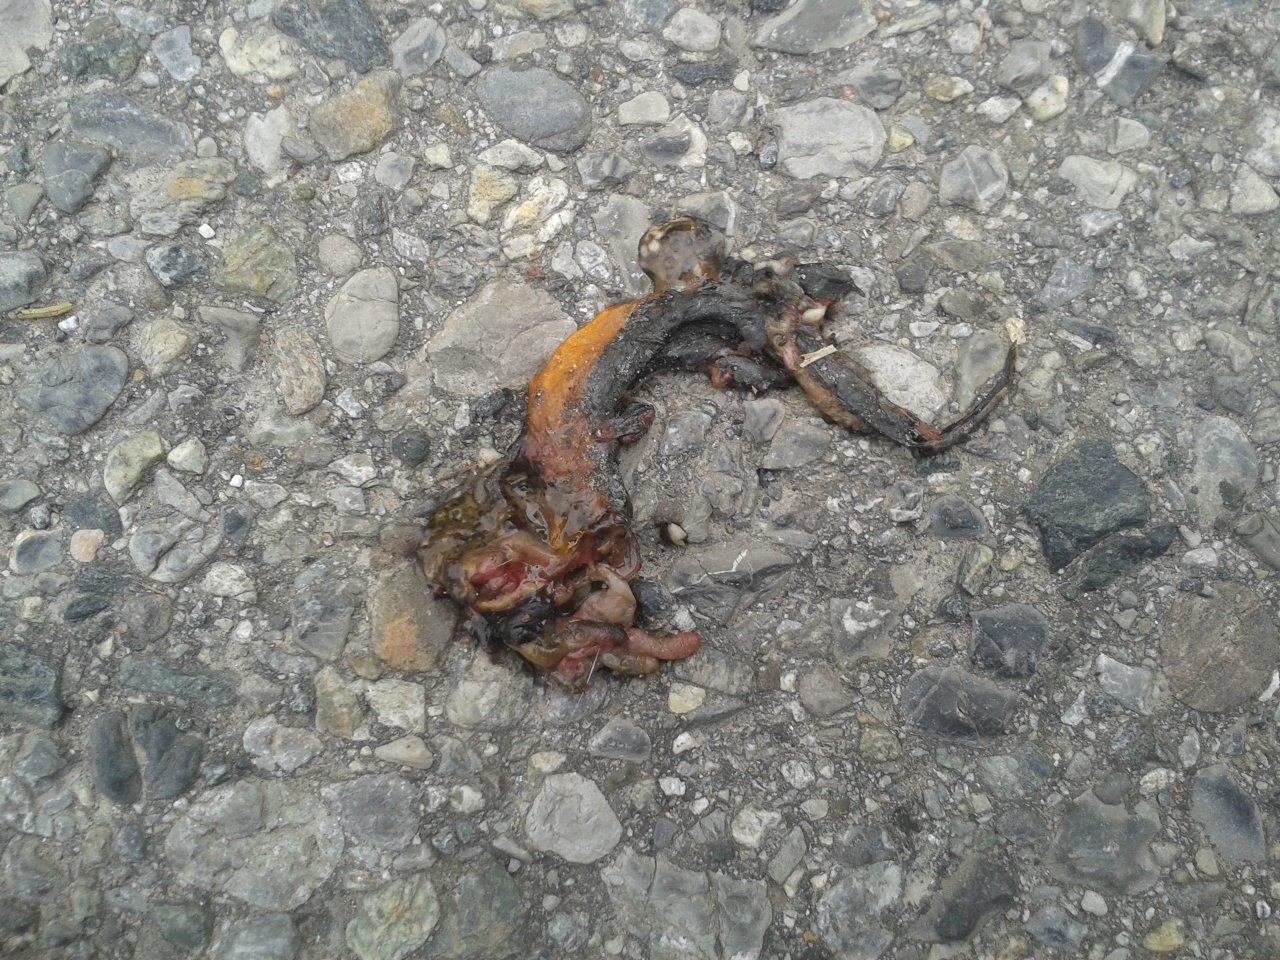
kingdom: Animalia
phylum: Chordata
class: Amphibia
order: Caudata
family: Salamandridae
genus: Ichthyosaura
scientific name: Ichthyosaura alpestris
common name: Alpine newt
